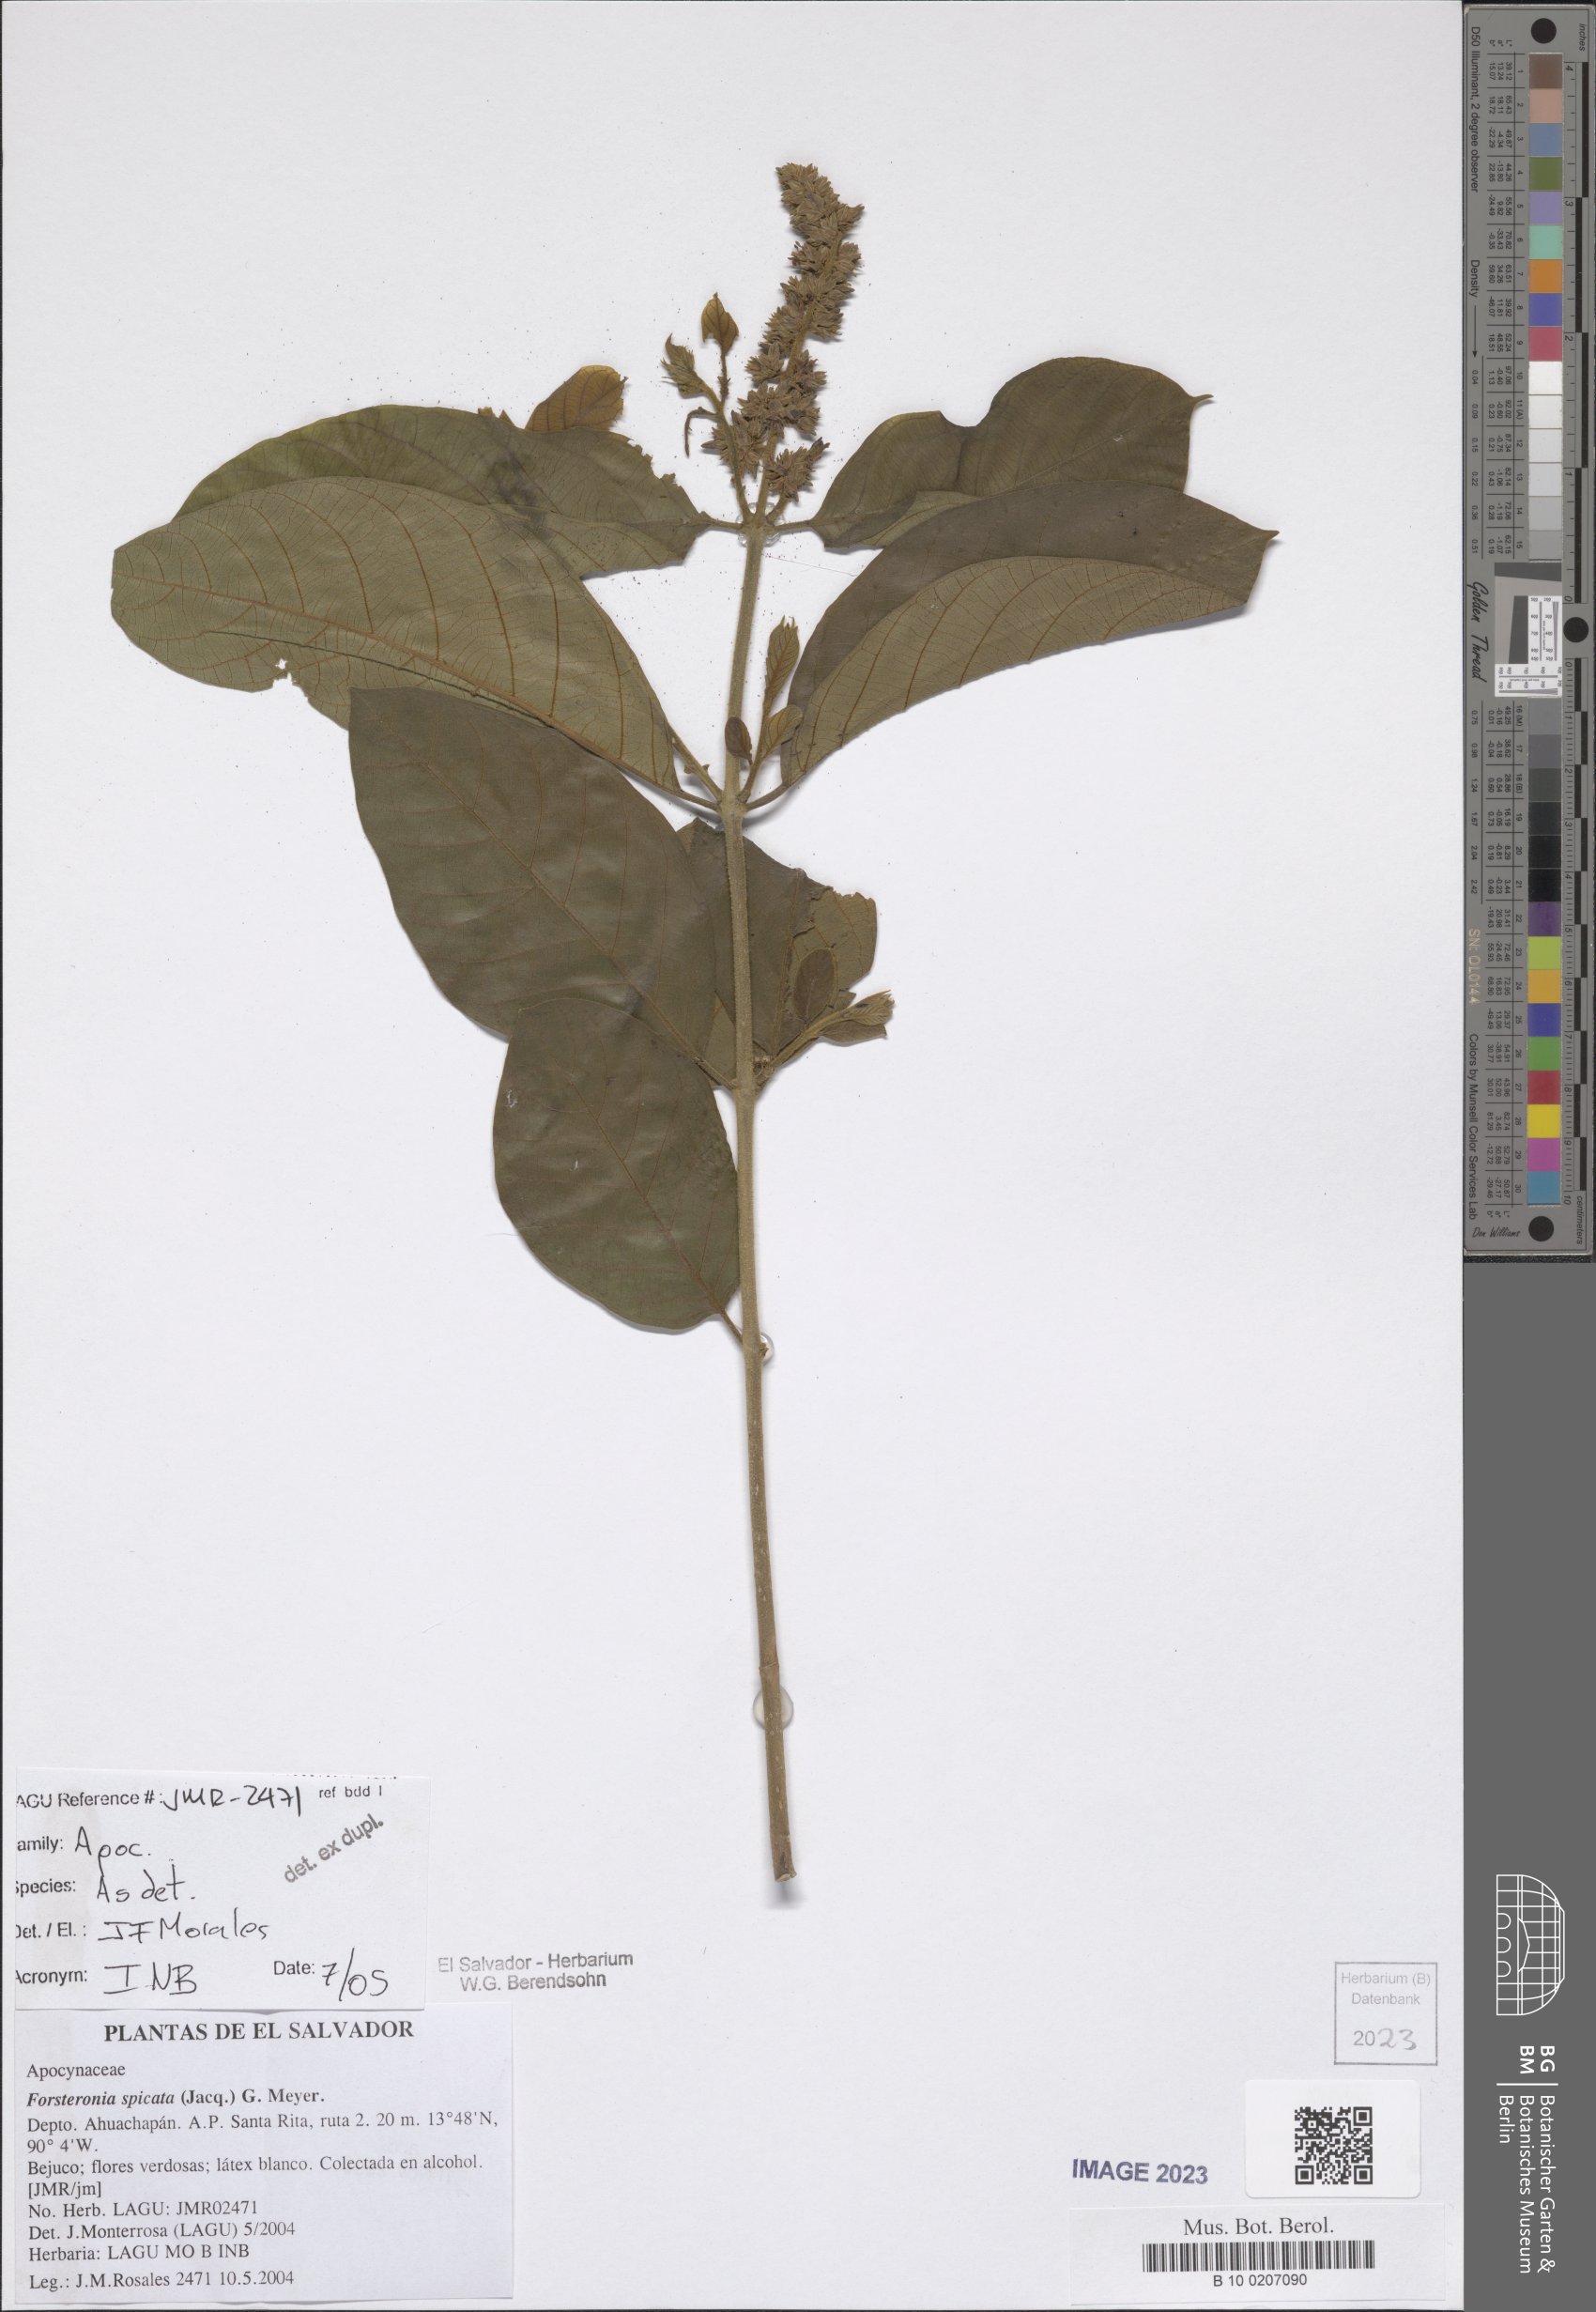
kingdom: Plantae
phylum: Tracheophyta
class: Magnoliopsida
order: Gentianales
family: Apocynaceae
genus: Forsteronia
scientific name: Forsteronia spicata
